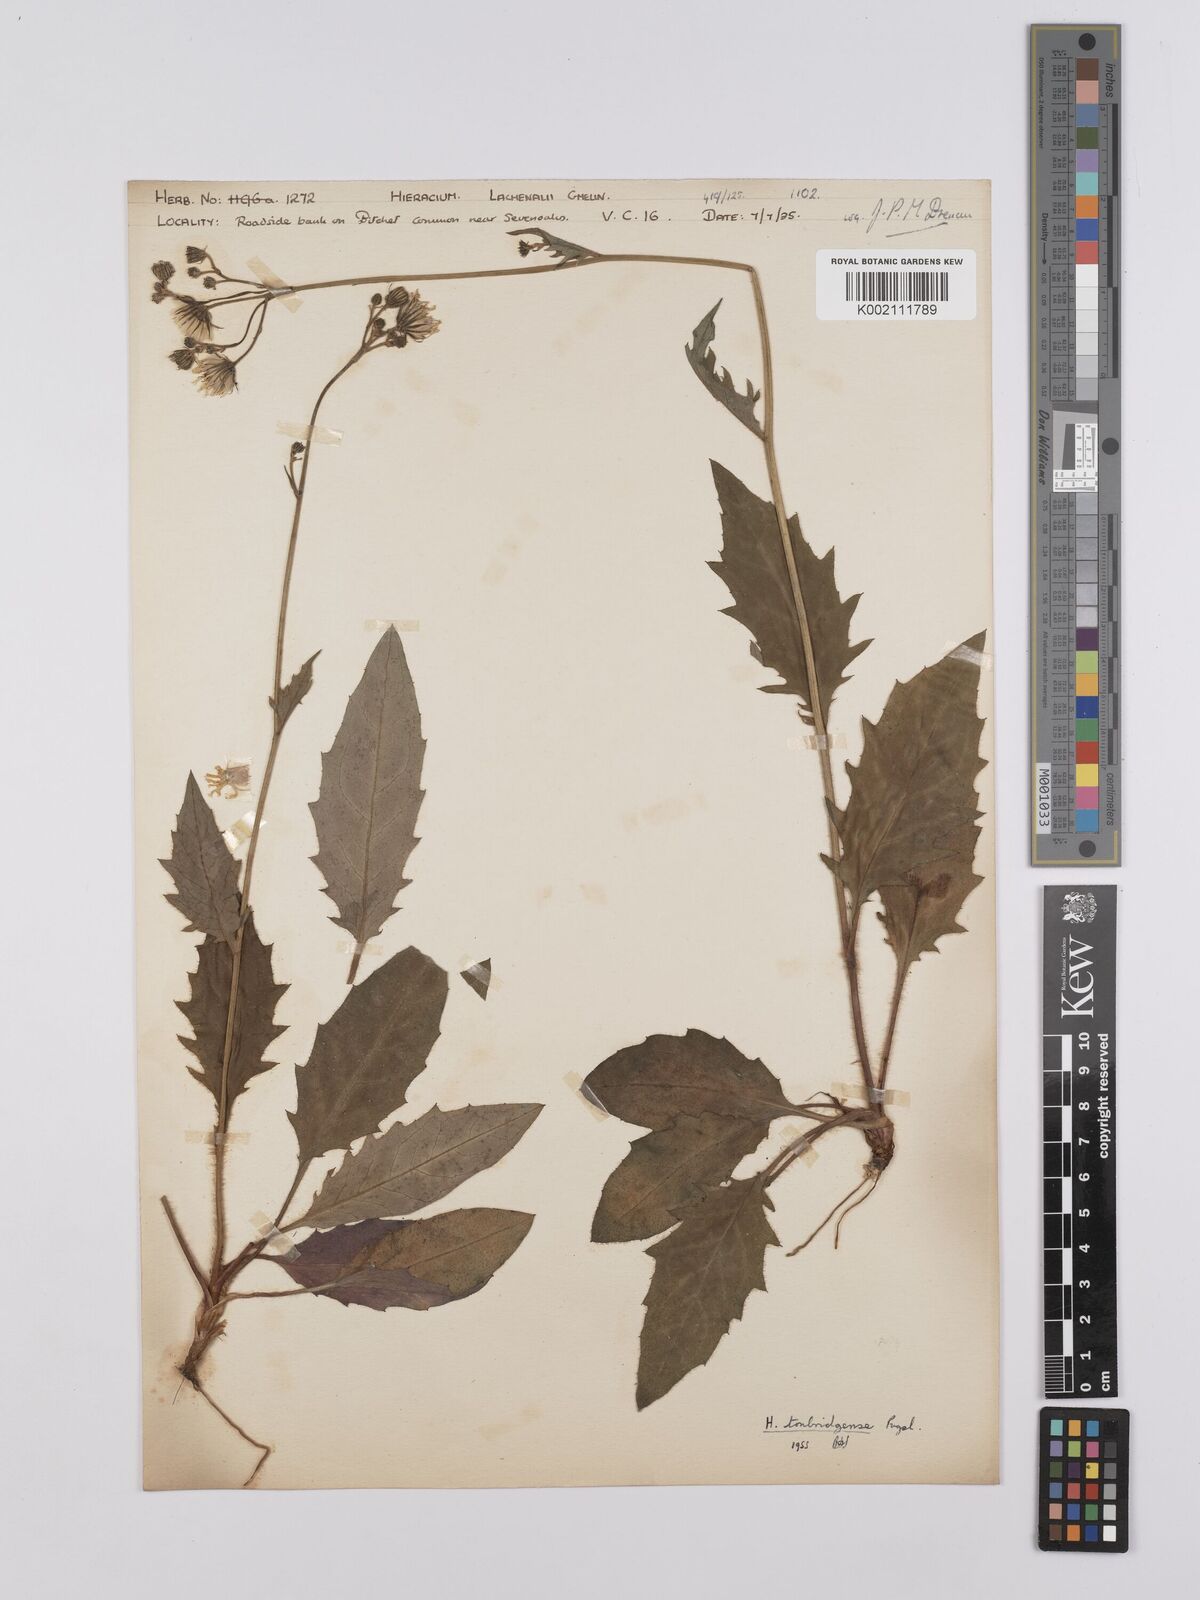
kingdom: Plantae
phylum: Tracheophyta
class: Magnoliopsida
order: Asterales
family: Asteraceae
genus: Hieracium
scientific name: Hieracium lachenalii
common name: Common hawkweed
